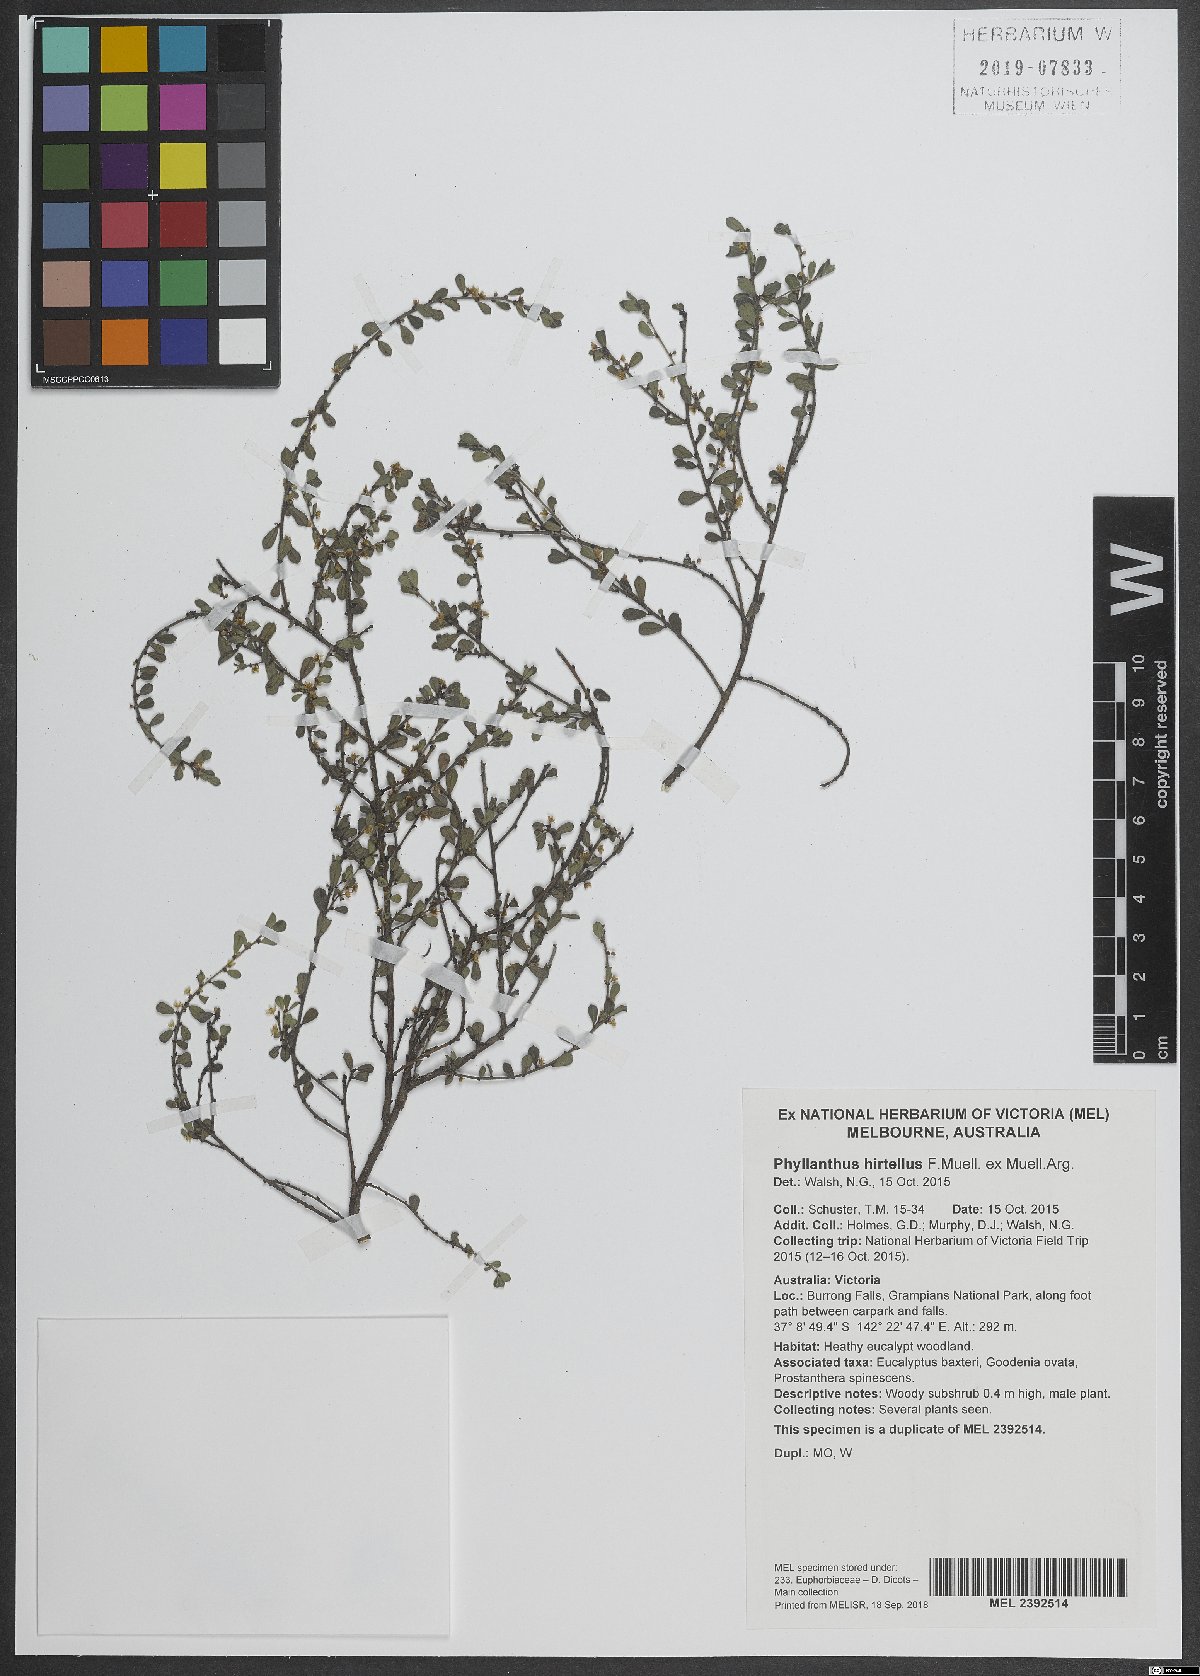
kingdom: Plantae
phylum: Tracheophyta
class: Magnoliopsida
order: Malpighiales
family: Phyllanthaceae
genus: Phyllanthus
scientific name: Phyllanthus hirtellus
